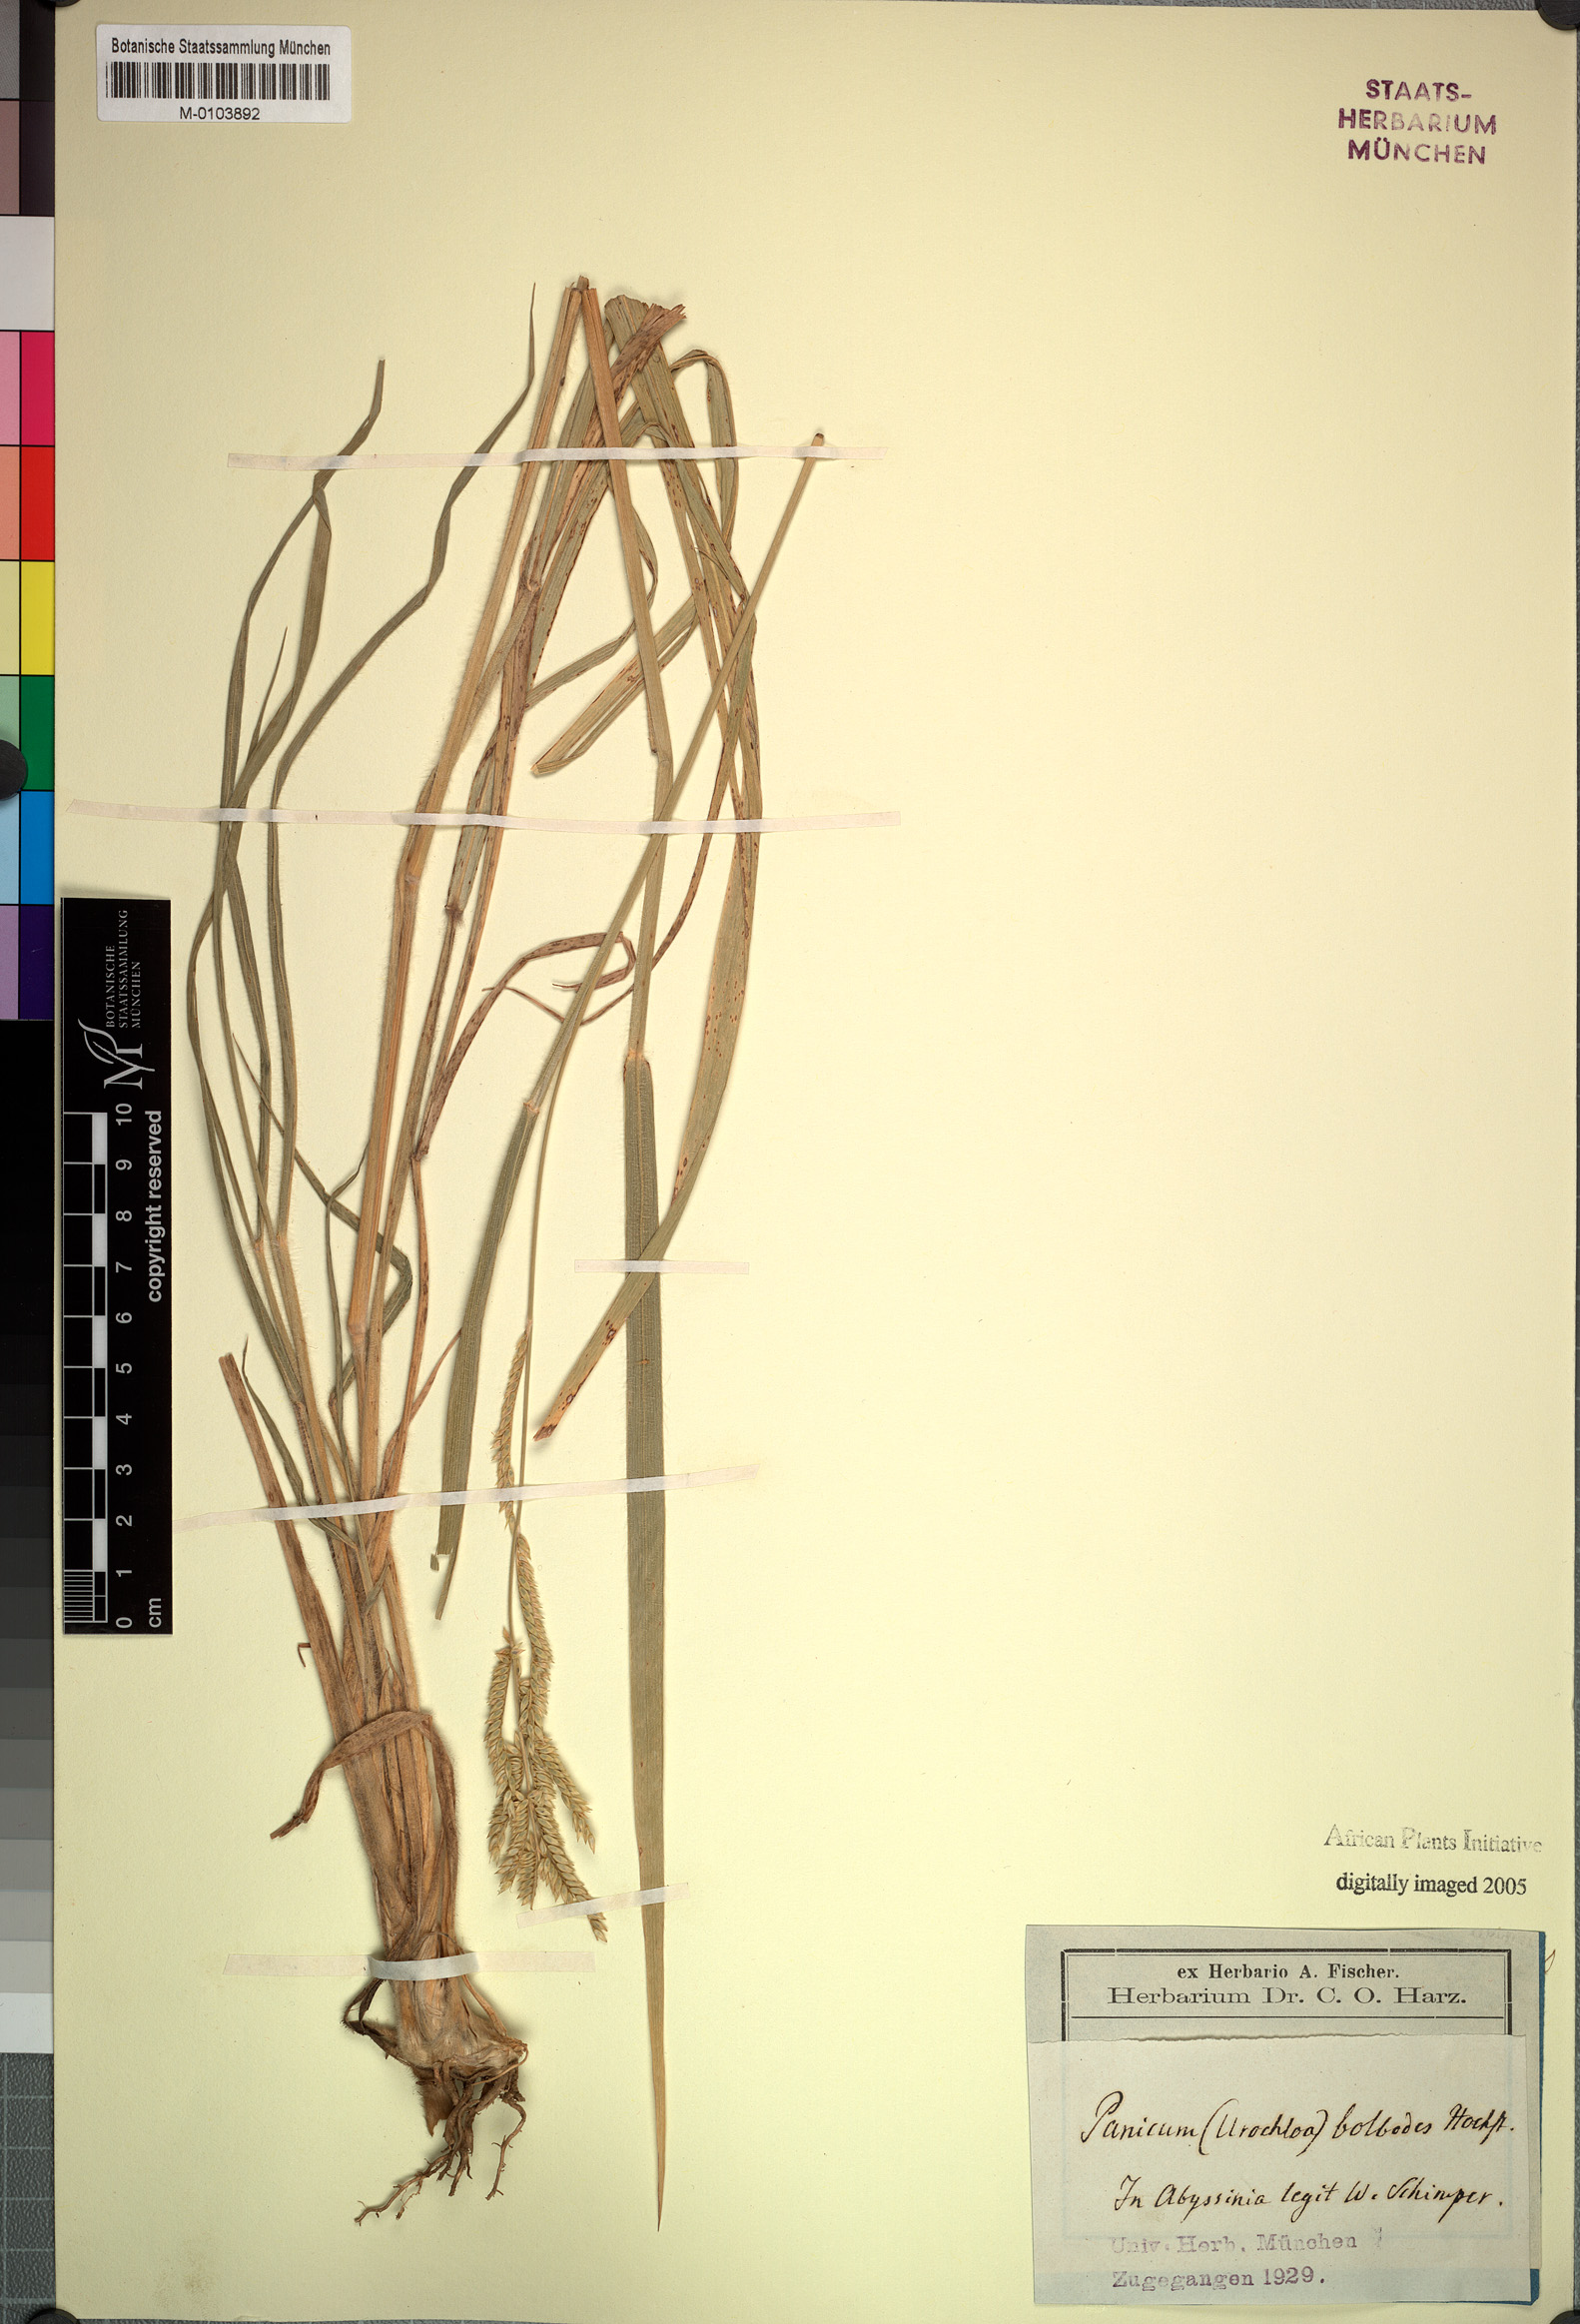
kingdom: Plantae
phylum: Tracheophyta
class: Liliopsida
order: Poales
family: Poaceae
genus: Urochloa
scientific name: Urochloa oligotricha
